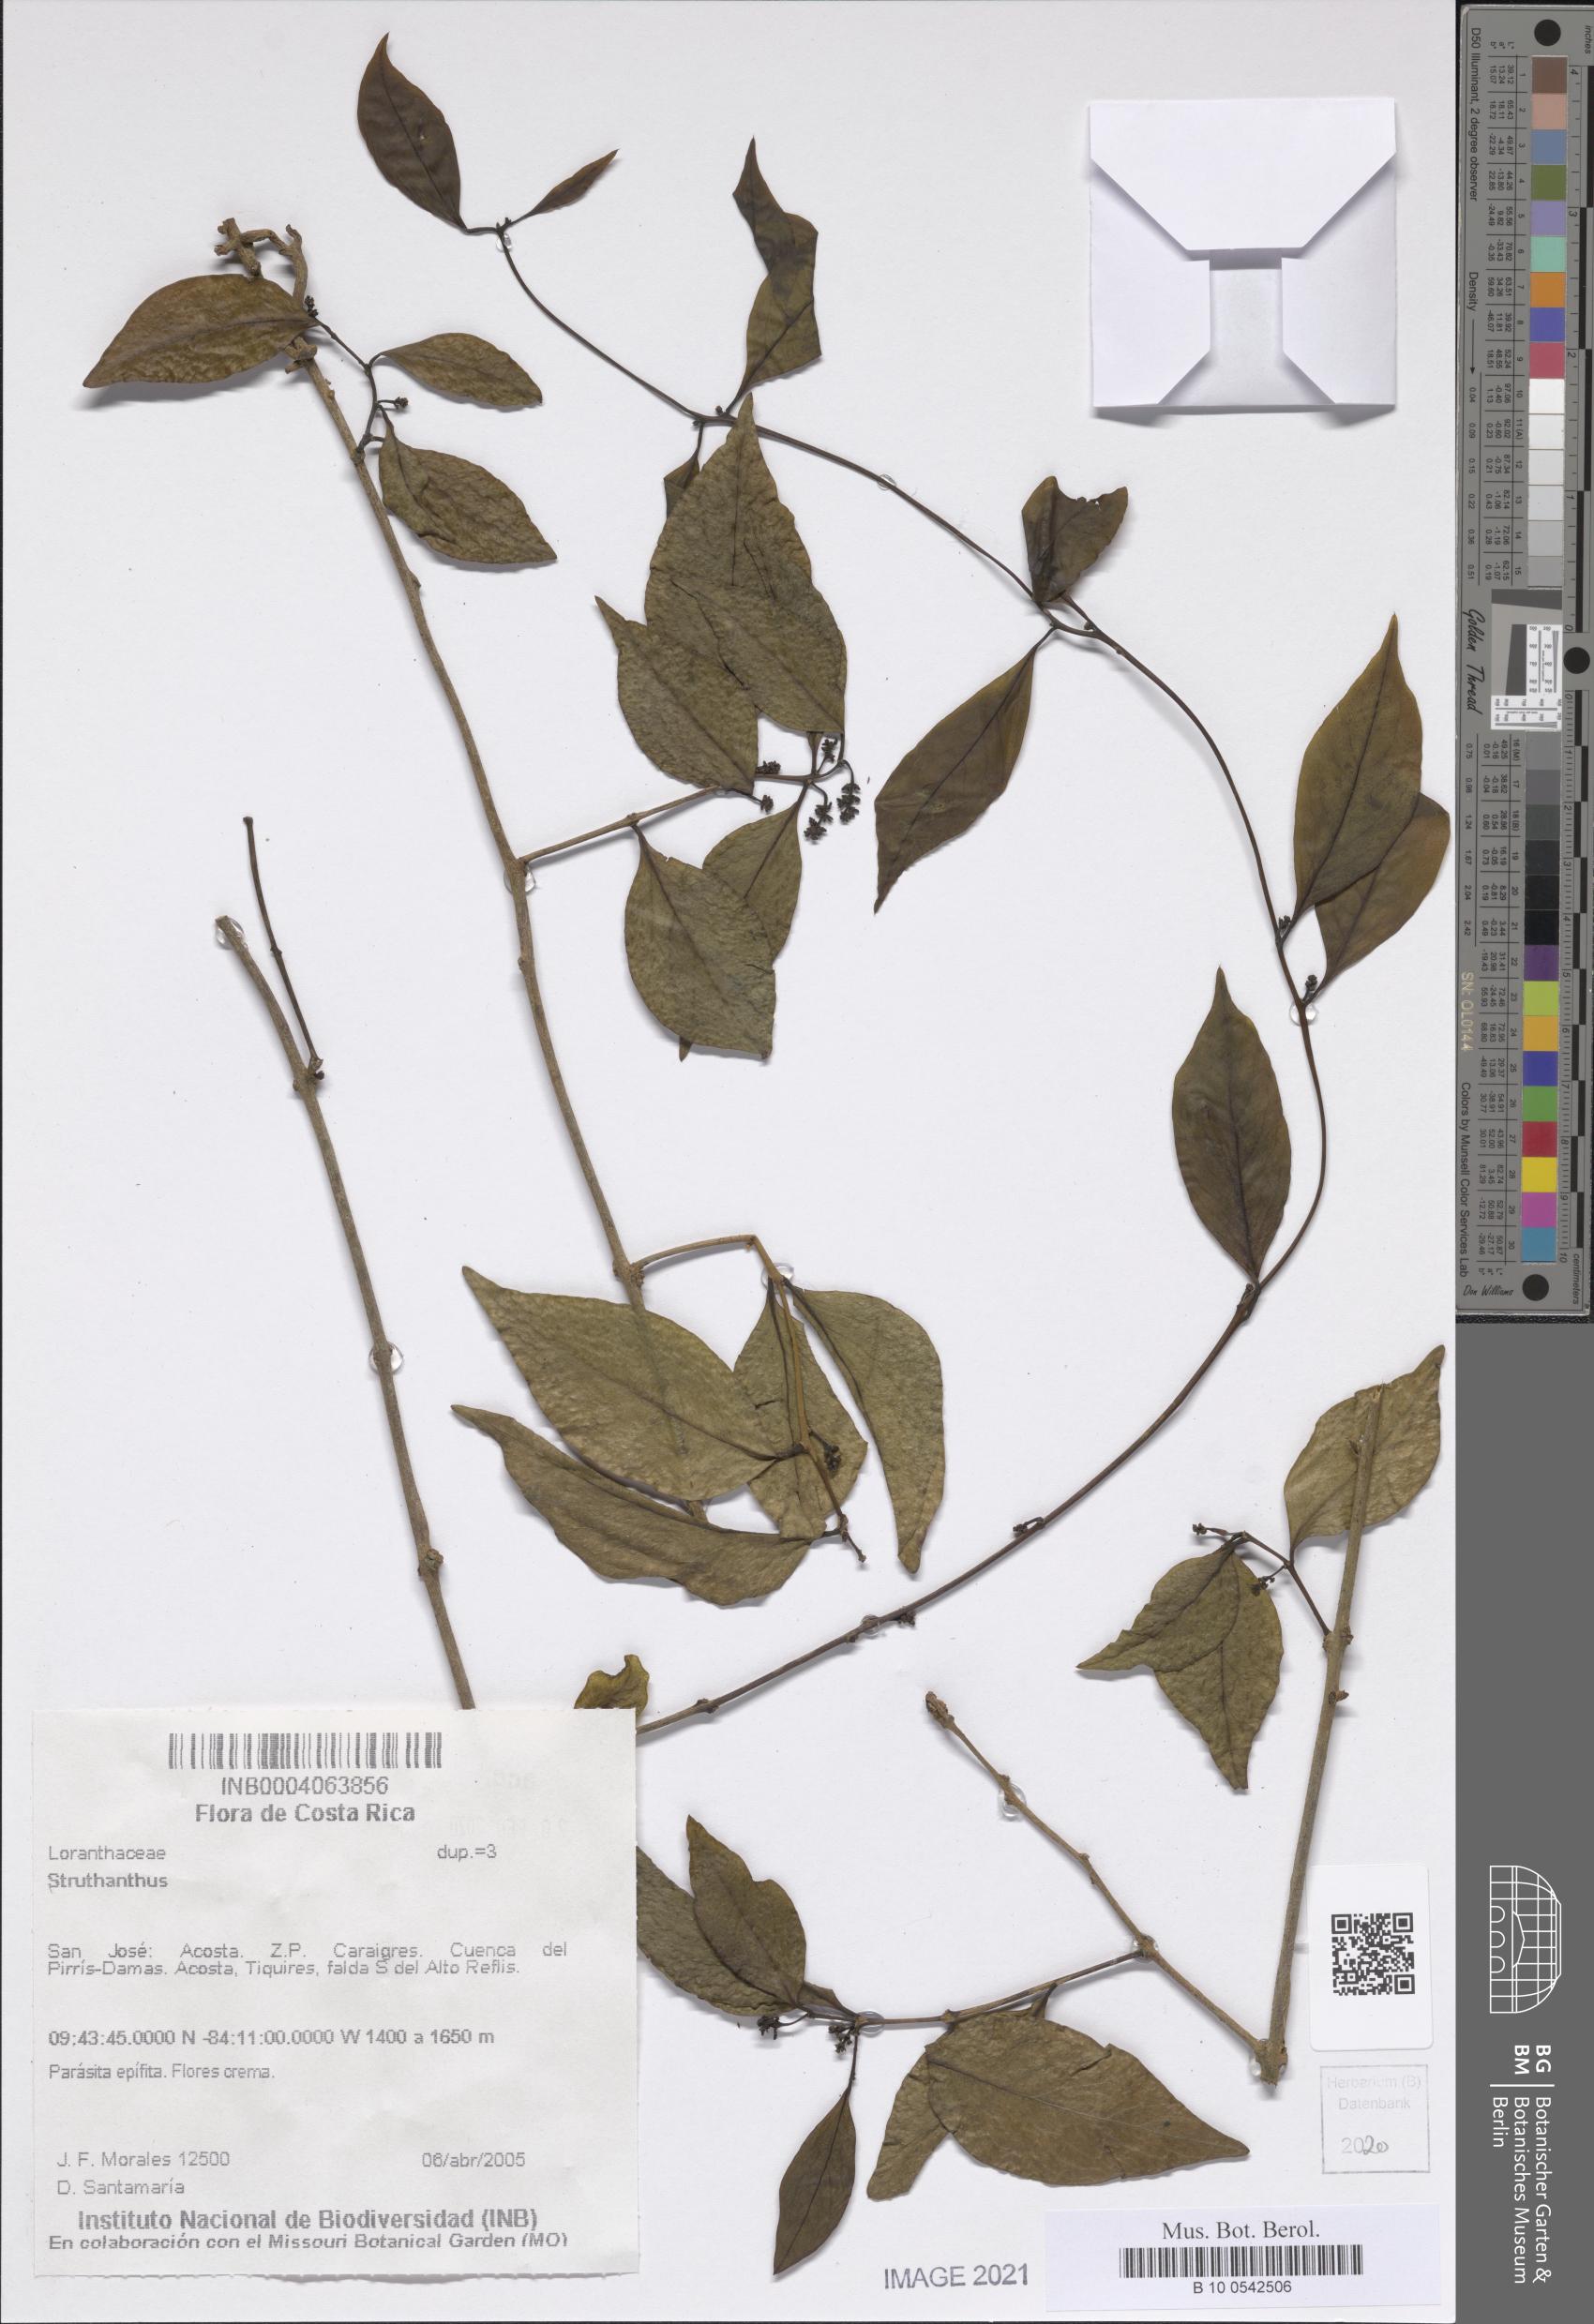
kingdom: Plantae
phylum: Tracheophyta
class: Magnoliopsida
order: Santalales
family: Loranthaceae
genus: Struthanthus
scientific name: Struthanthus
